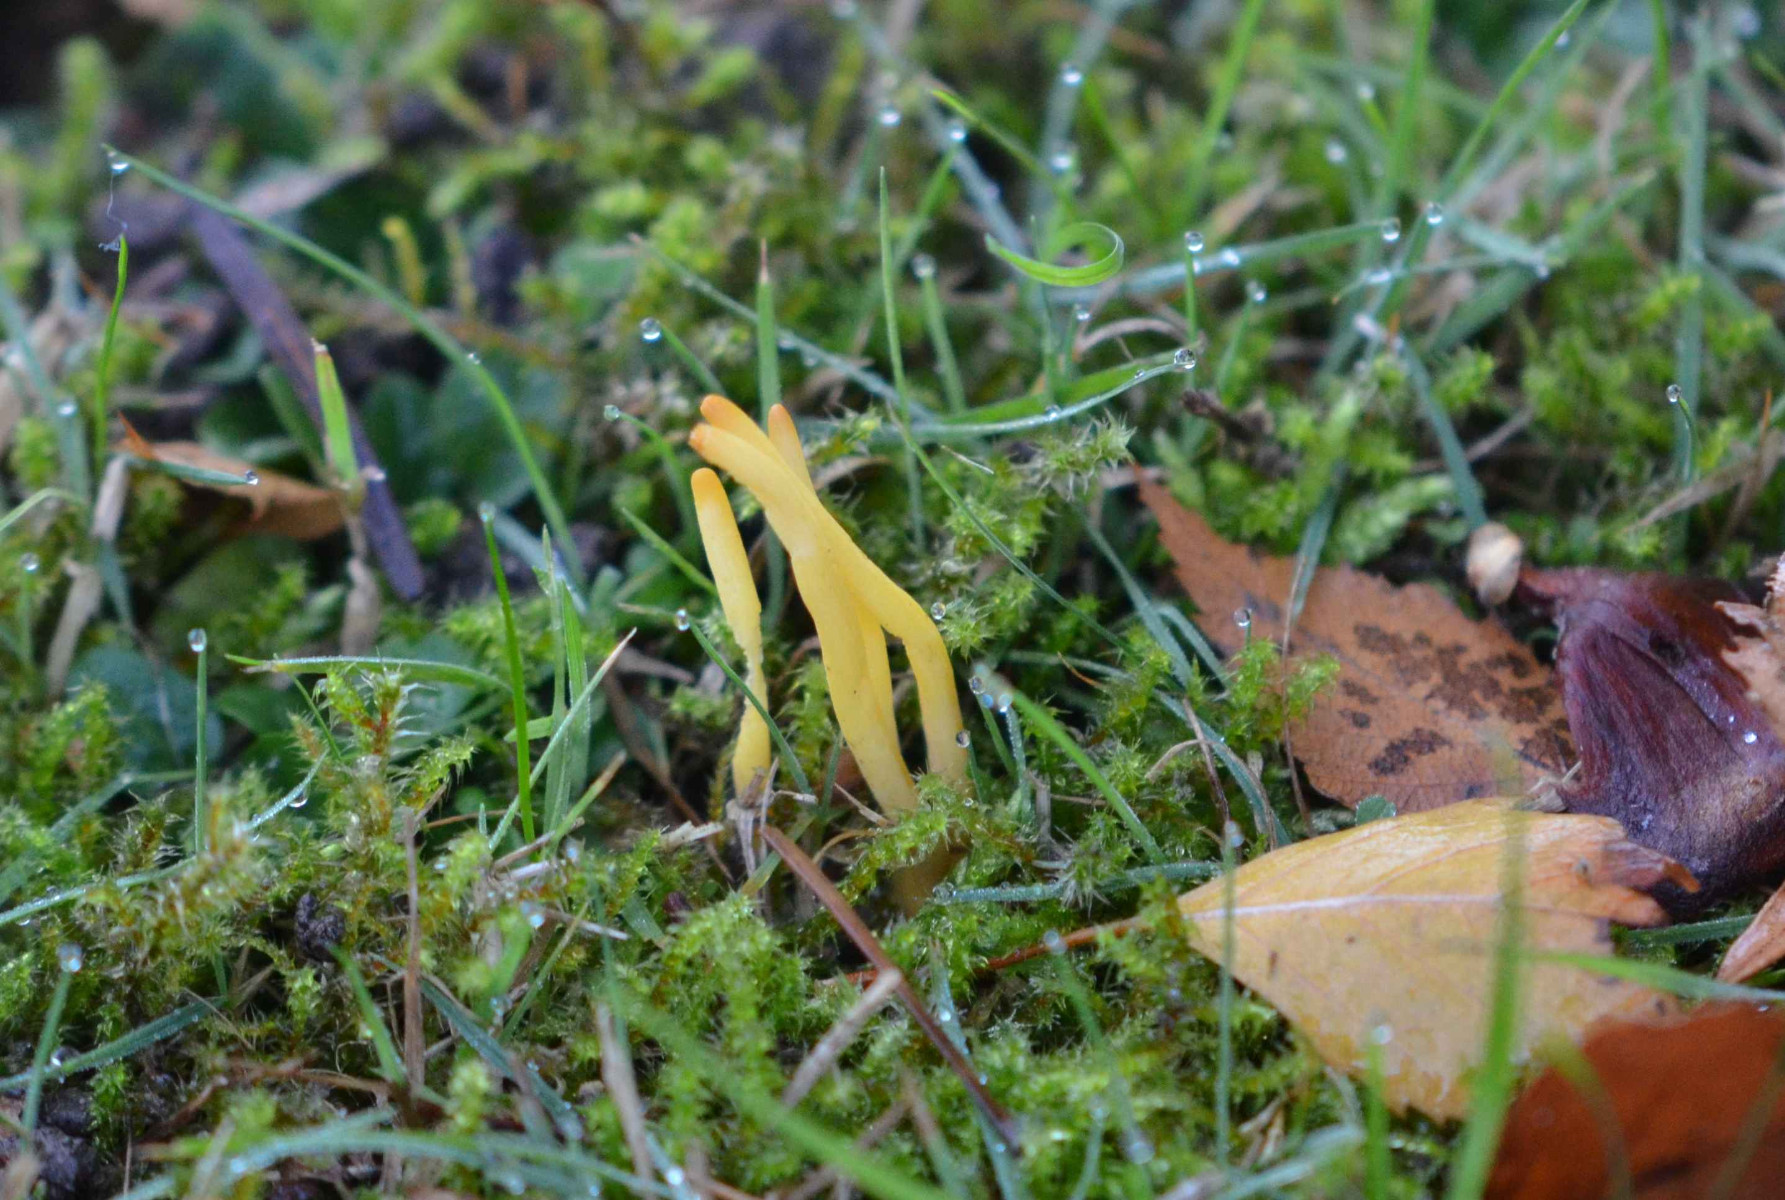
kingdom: Fungi
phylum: Basidiomycota
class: Agaricomycetes
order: Agaricales
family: Clavariaceae
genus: Clavulinopsis
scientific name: Clavulinopsis
